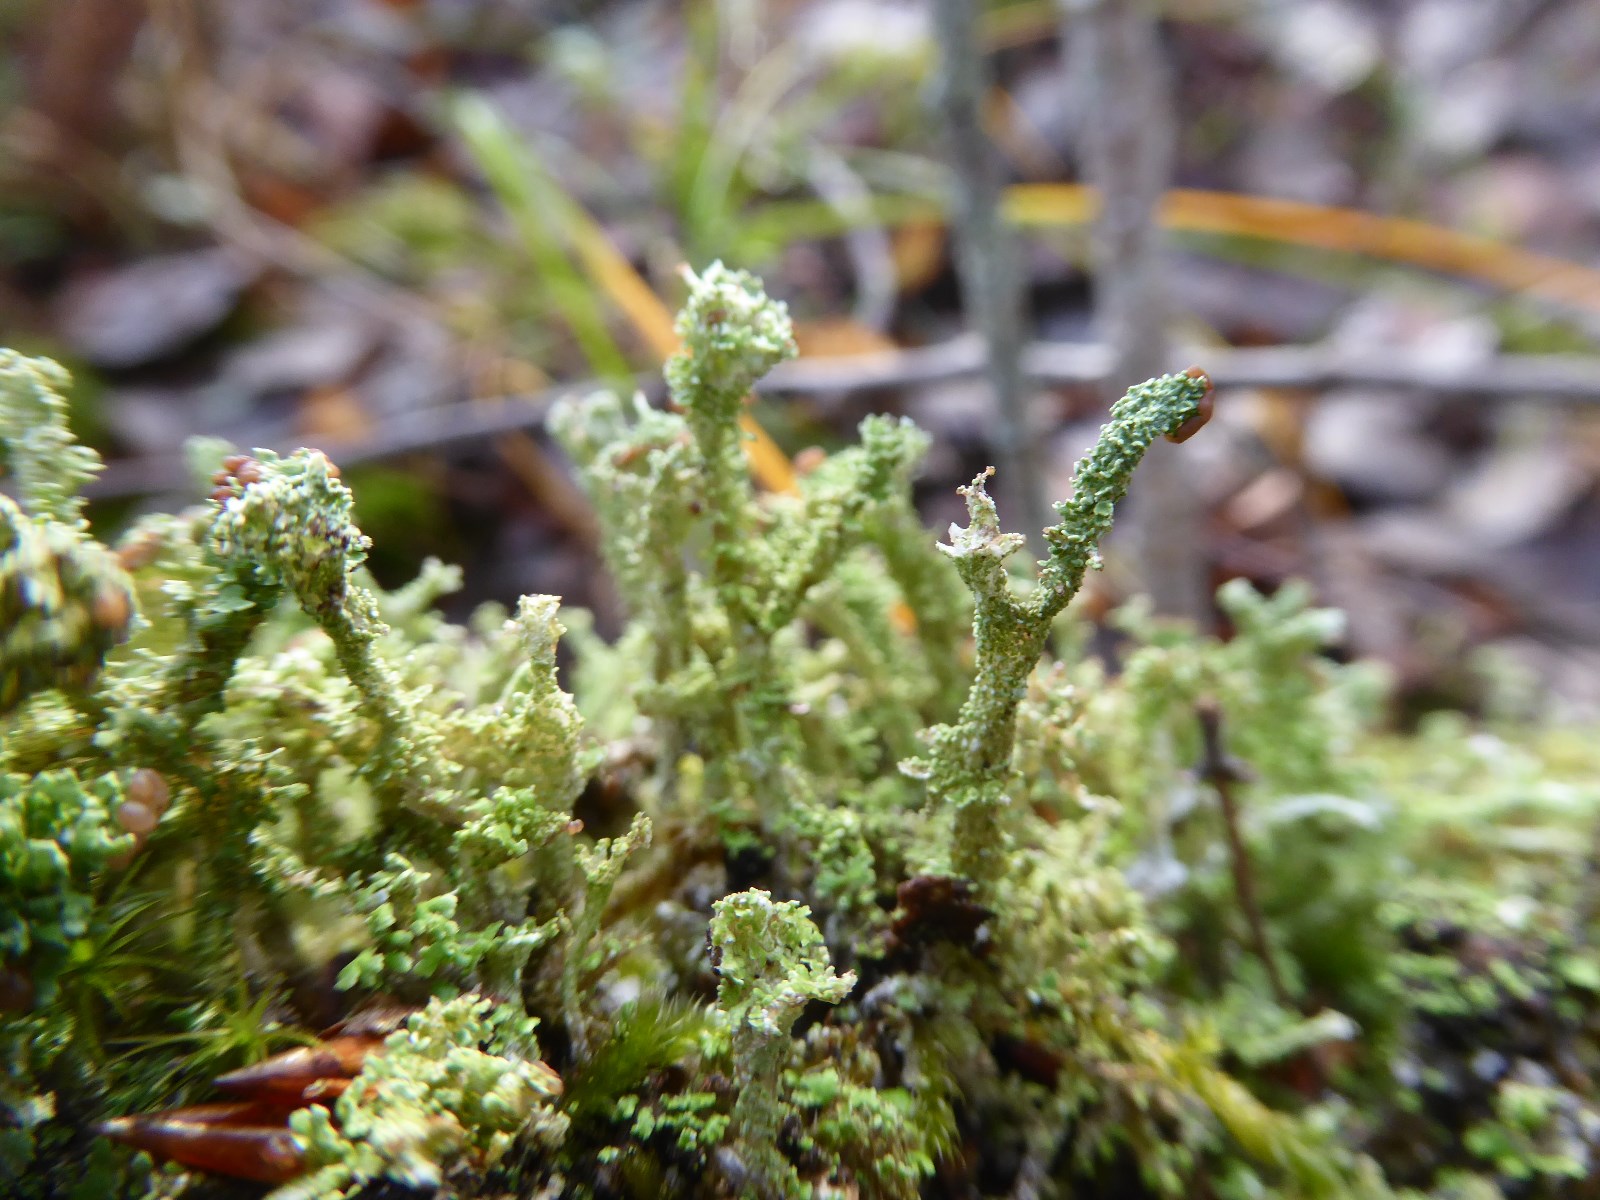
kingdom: Fungi
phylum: Ascomycota
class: Lecanoromycetes
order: Lecanorales
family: Cladoniaceae
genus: Cladonia
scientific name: Cladonia squamosa
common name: skælklædt bægerlav
